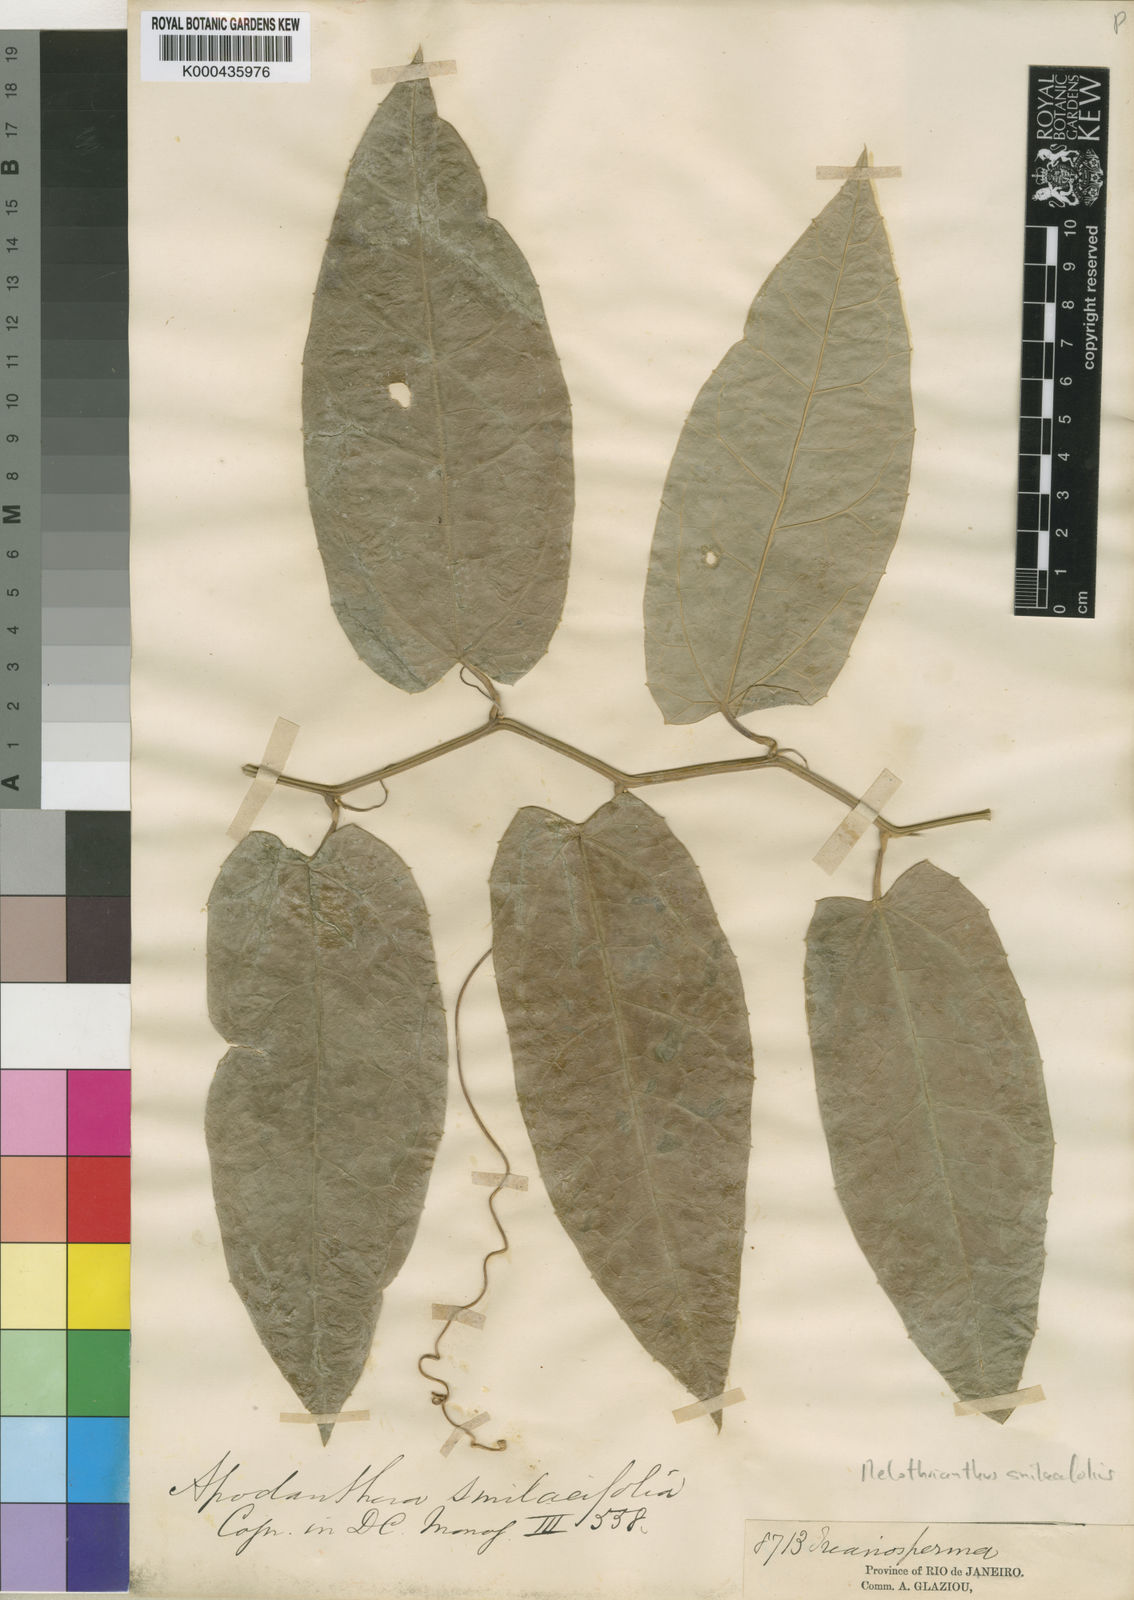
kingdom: Plantae
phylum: Tracheophyta
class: Magnoliopsida
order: Cucurbitales
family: Cucurbitaceae
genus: Apodanthera
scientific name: Apodanthera smilacifolia
